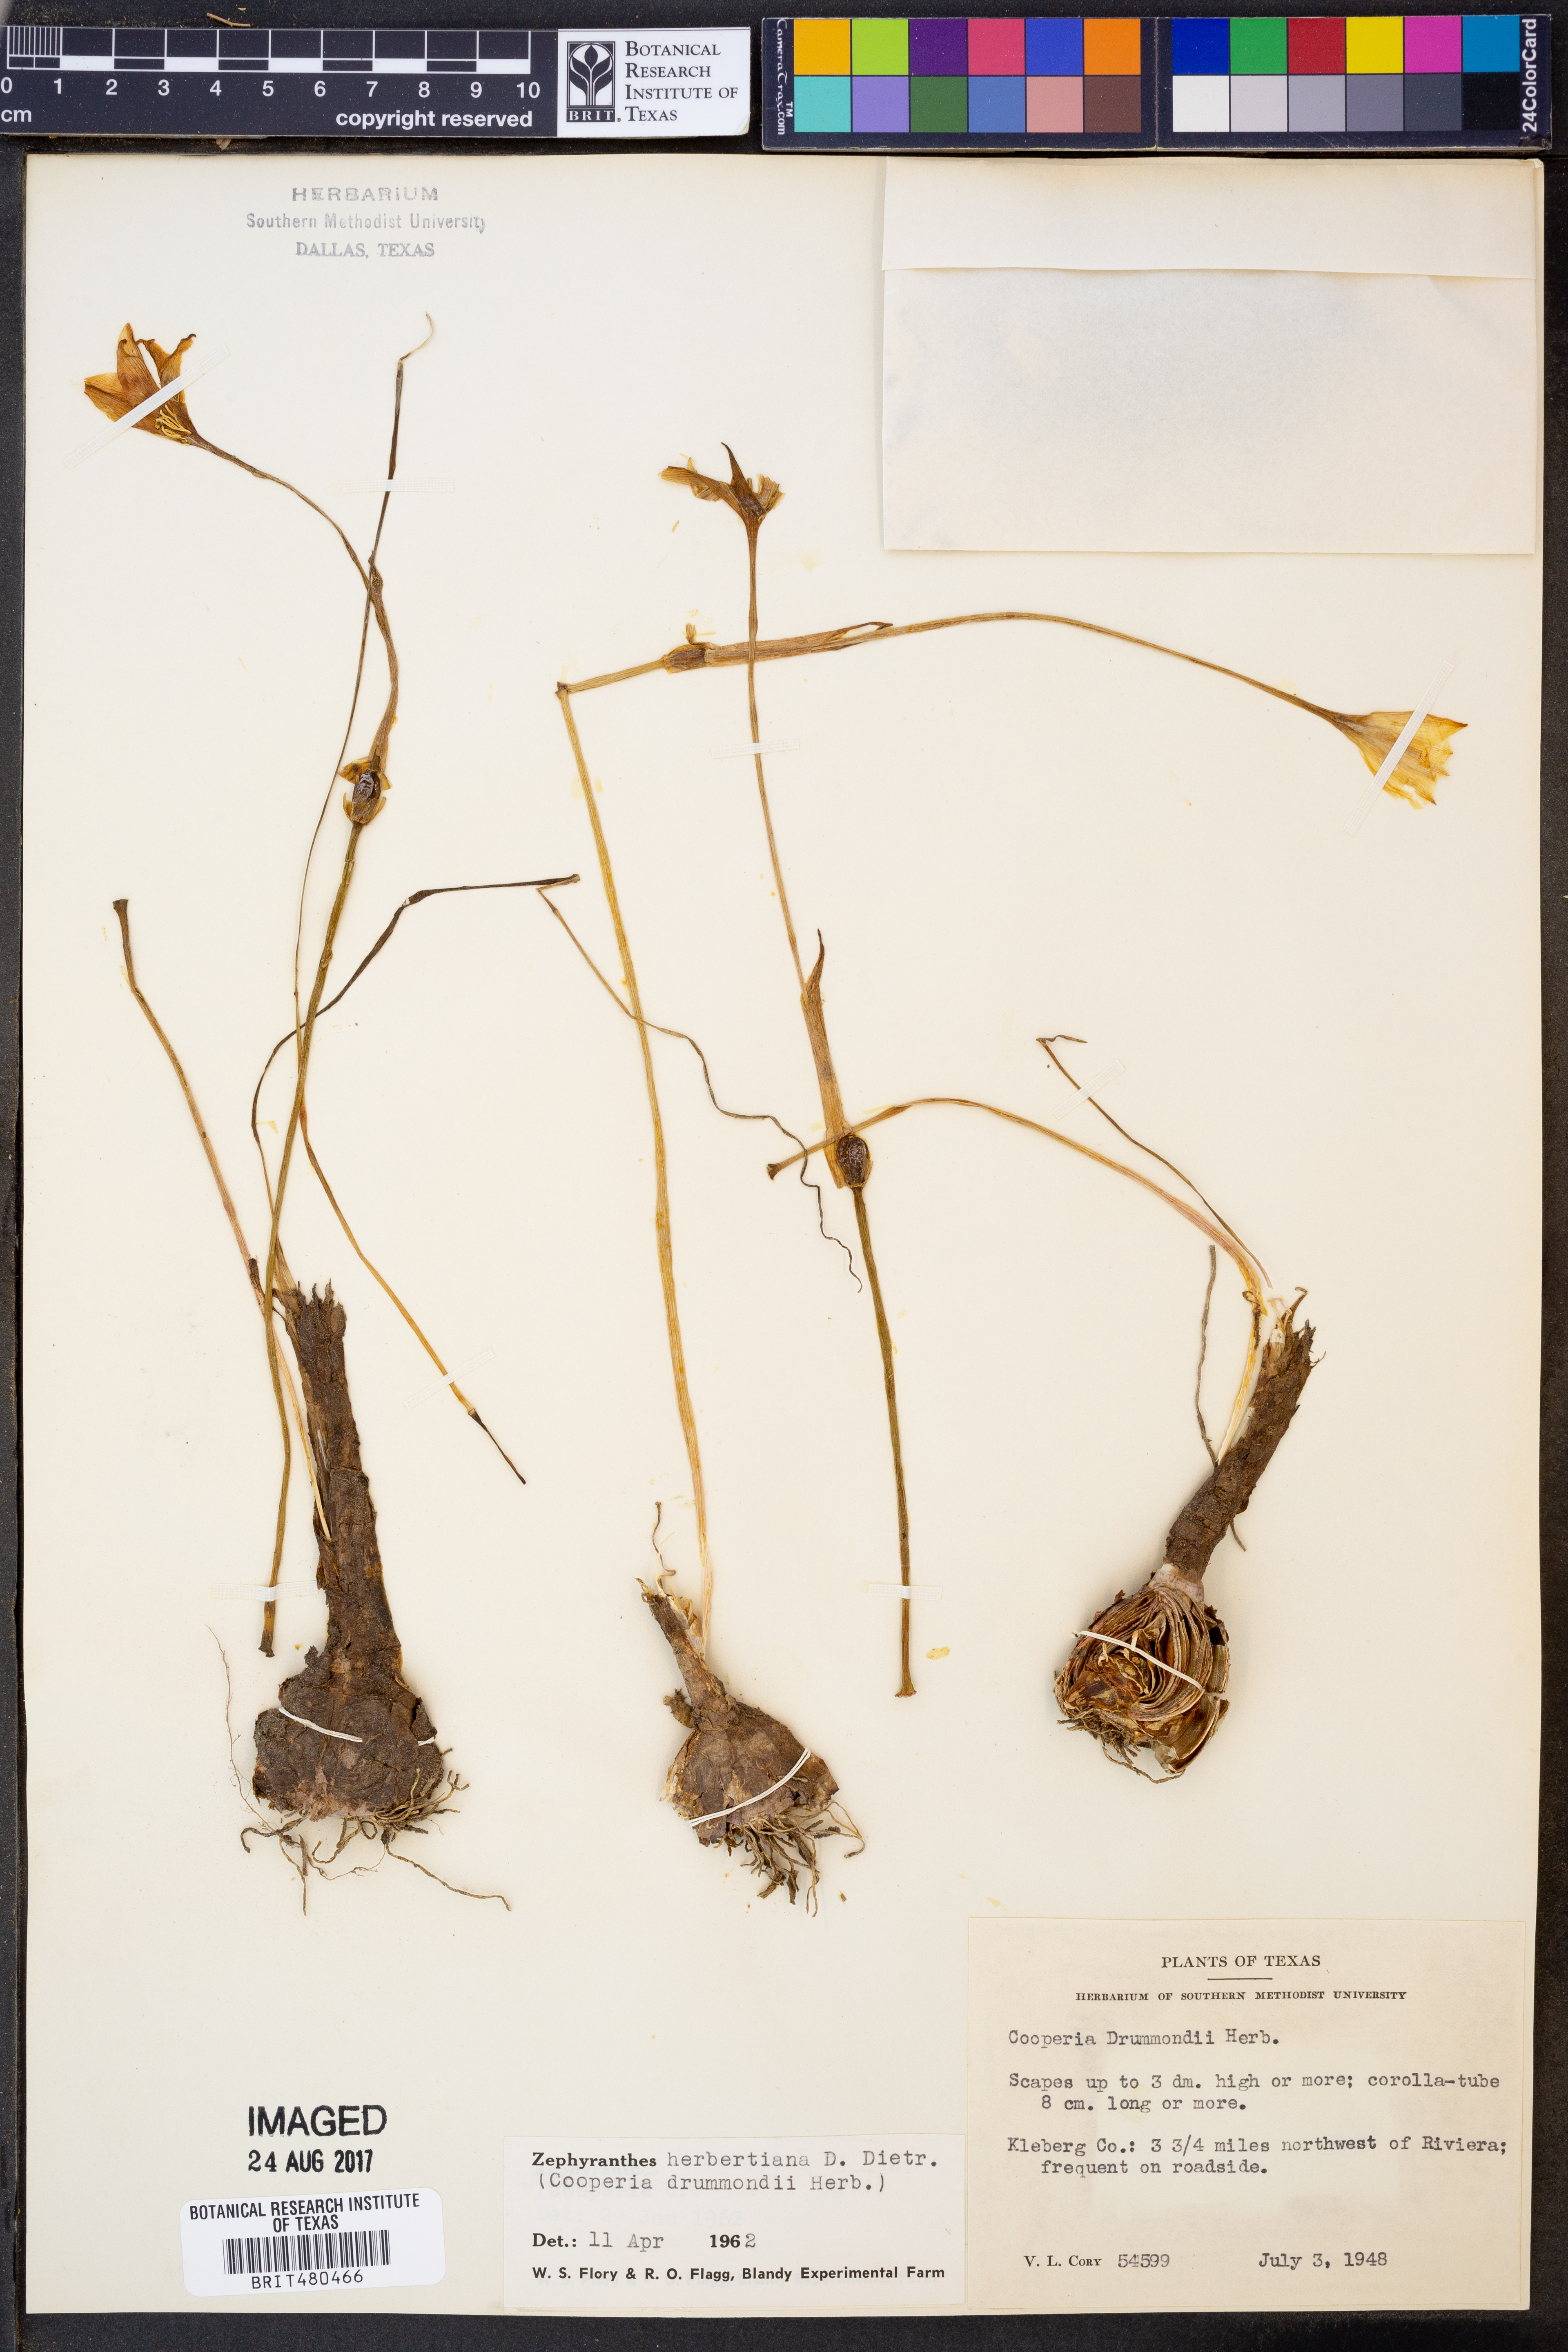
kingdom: Plantae
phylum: Tracheophyta
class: Liliopsida
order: Asparagales
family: Amaryllidaceae
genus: Zephyranthes
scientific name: Zephyranthes chlorosolen
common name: Evening rain-lily
